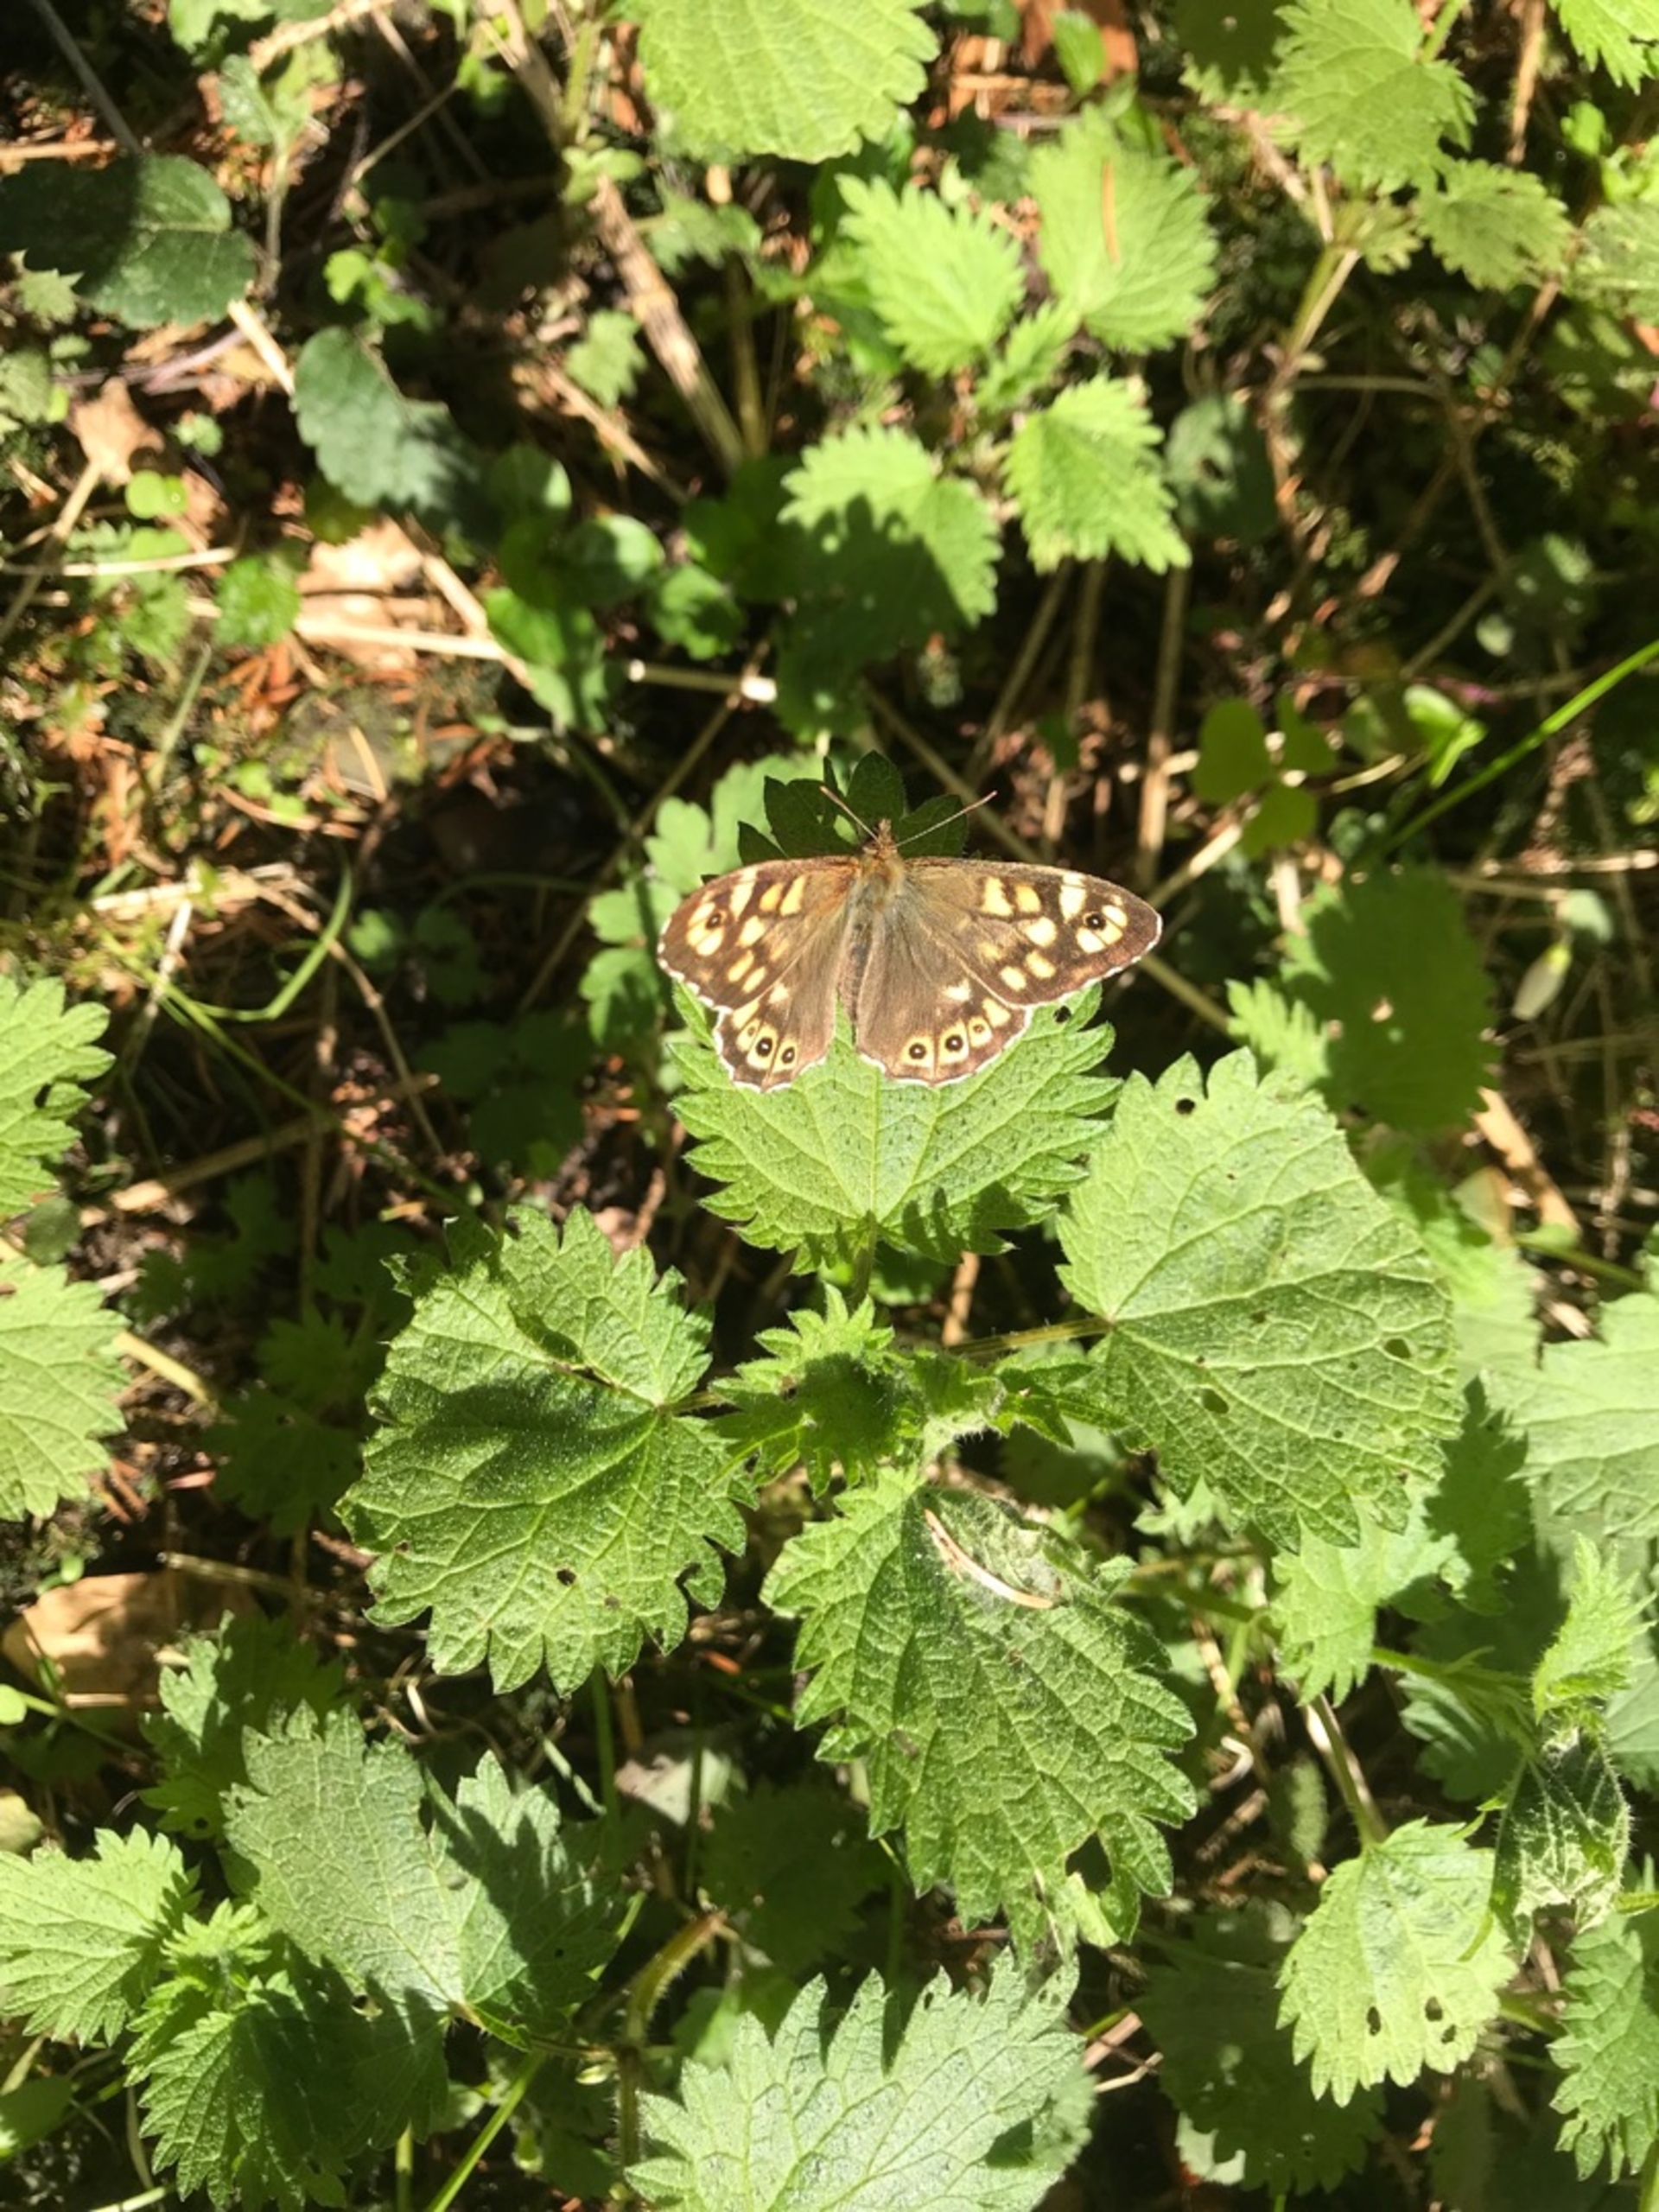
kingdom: Animalia
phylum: Arthropoda
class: Insecta
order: Lepidoptera
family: Nymphalidae
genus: Pararge
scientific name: Pararge aegeria
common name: Skovrandøje
